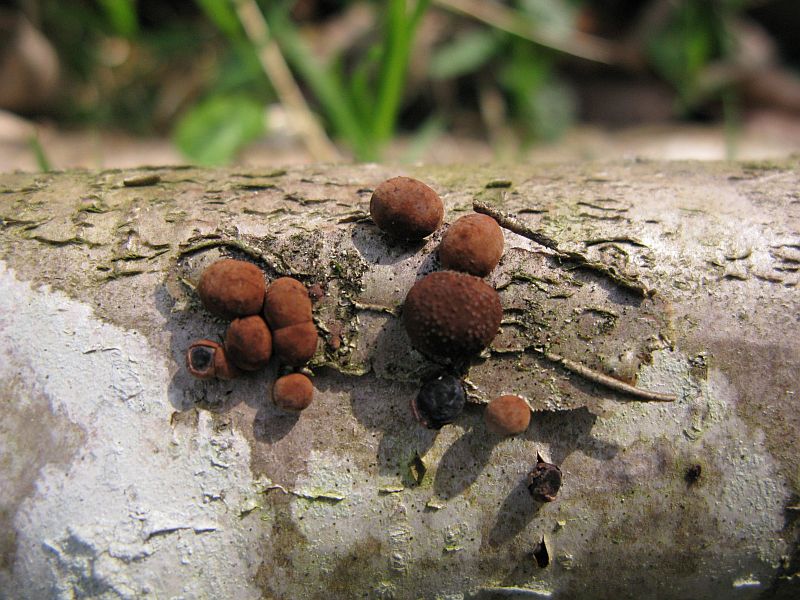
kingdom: Fungi
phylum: Ascomycota
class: Sordariomycetes
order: Xylariales
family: Hypoxylaceae
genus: Hypoxylon
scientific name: Hypoxylon howeanum
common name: halvkugleformet kulbær
